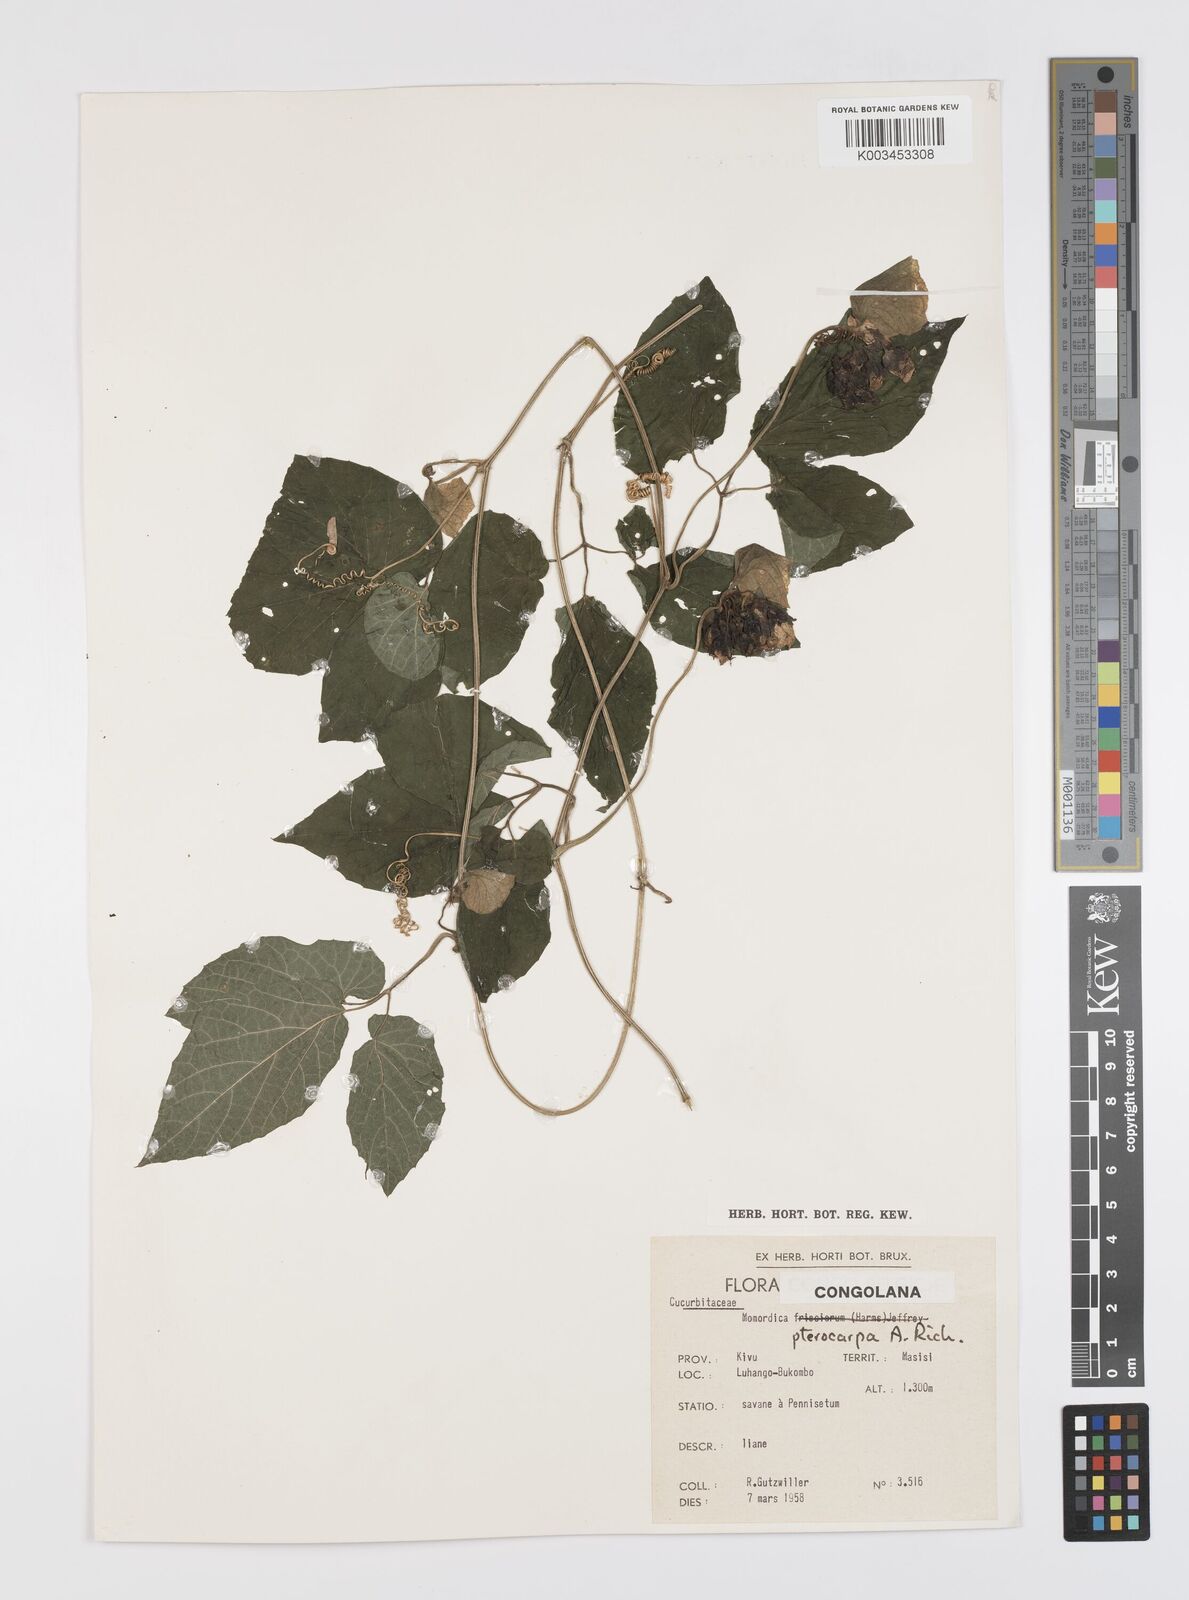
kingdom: Plantae
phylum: Tracheophyta
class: Magnoliopsida
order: Cucurbitales
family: Cucurbitaceae
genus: Momordica
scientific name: Momordica pterocarpa
